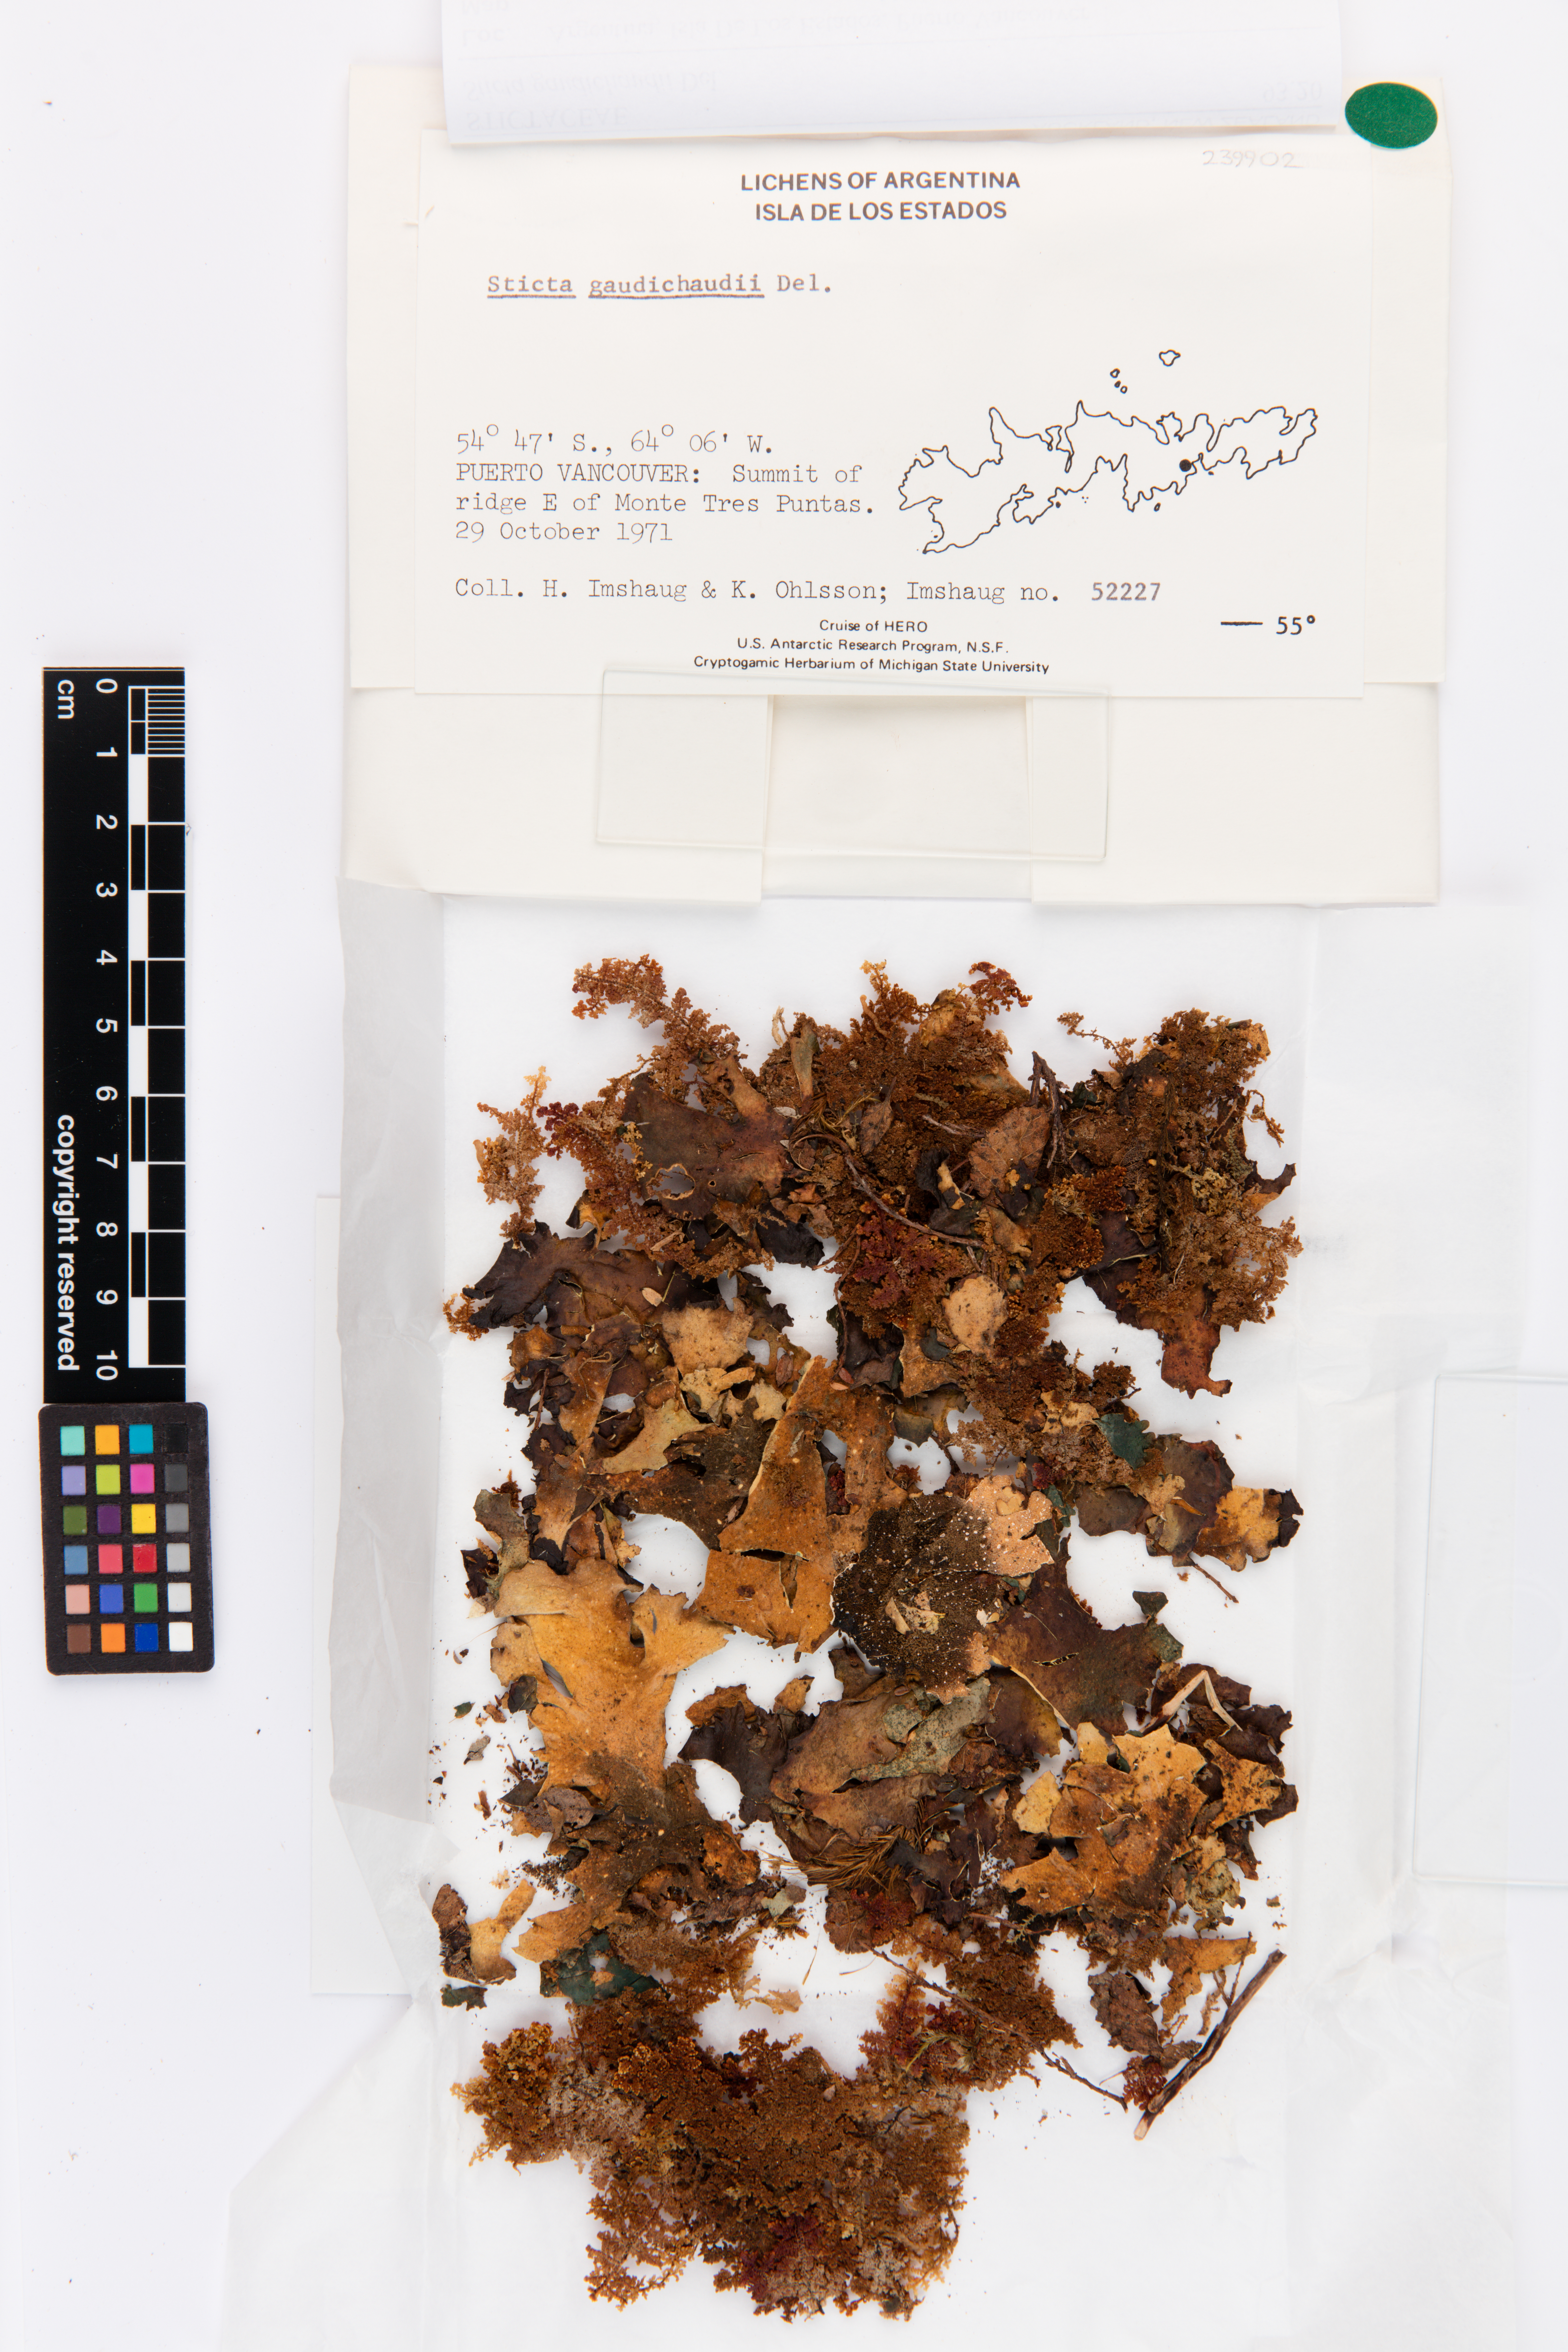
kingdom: Fungi
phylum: Ascomycota
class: Lecanoromycetes
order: Peltigerales
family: Lobariaceae
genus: Sticta
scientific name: Sticta gaudichaudii
